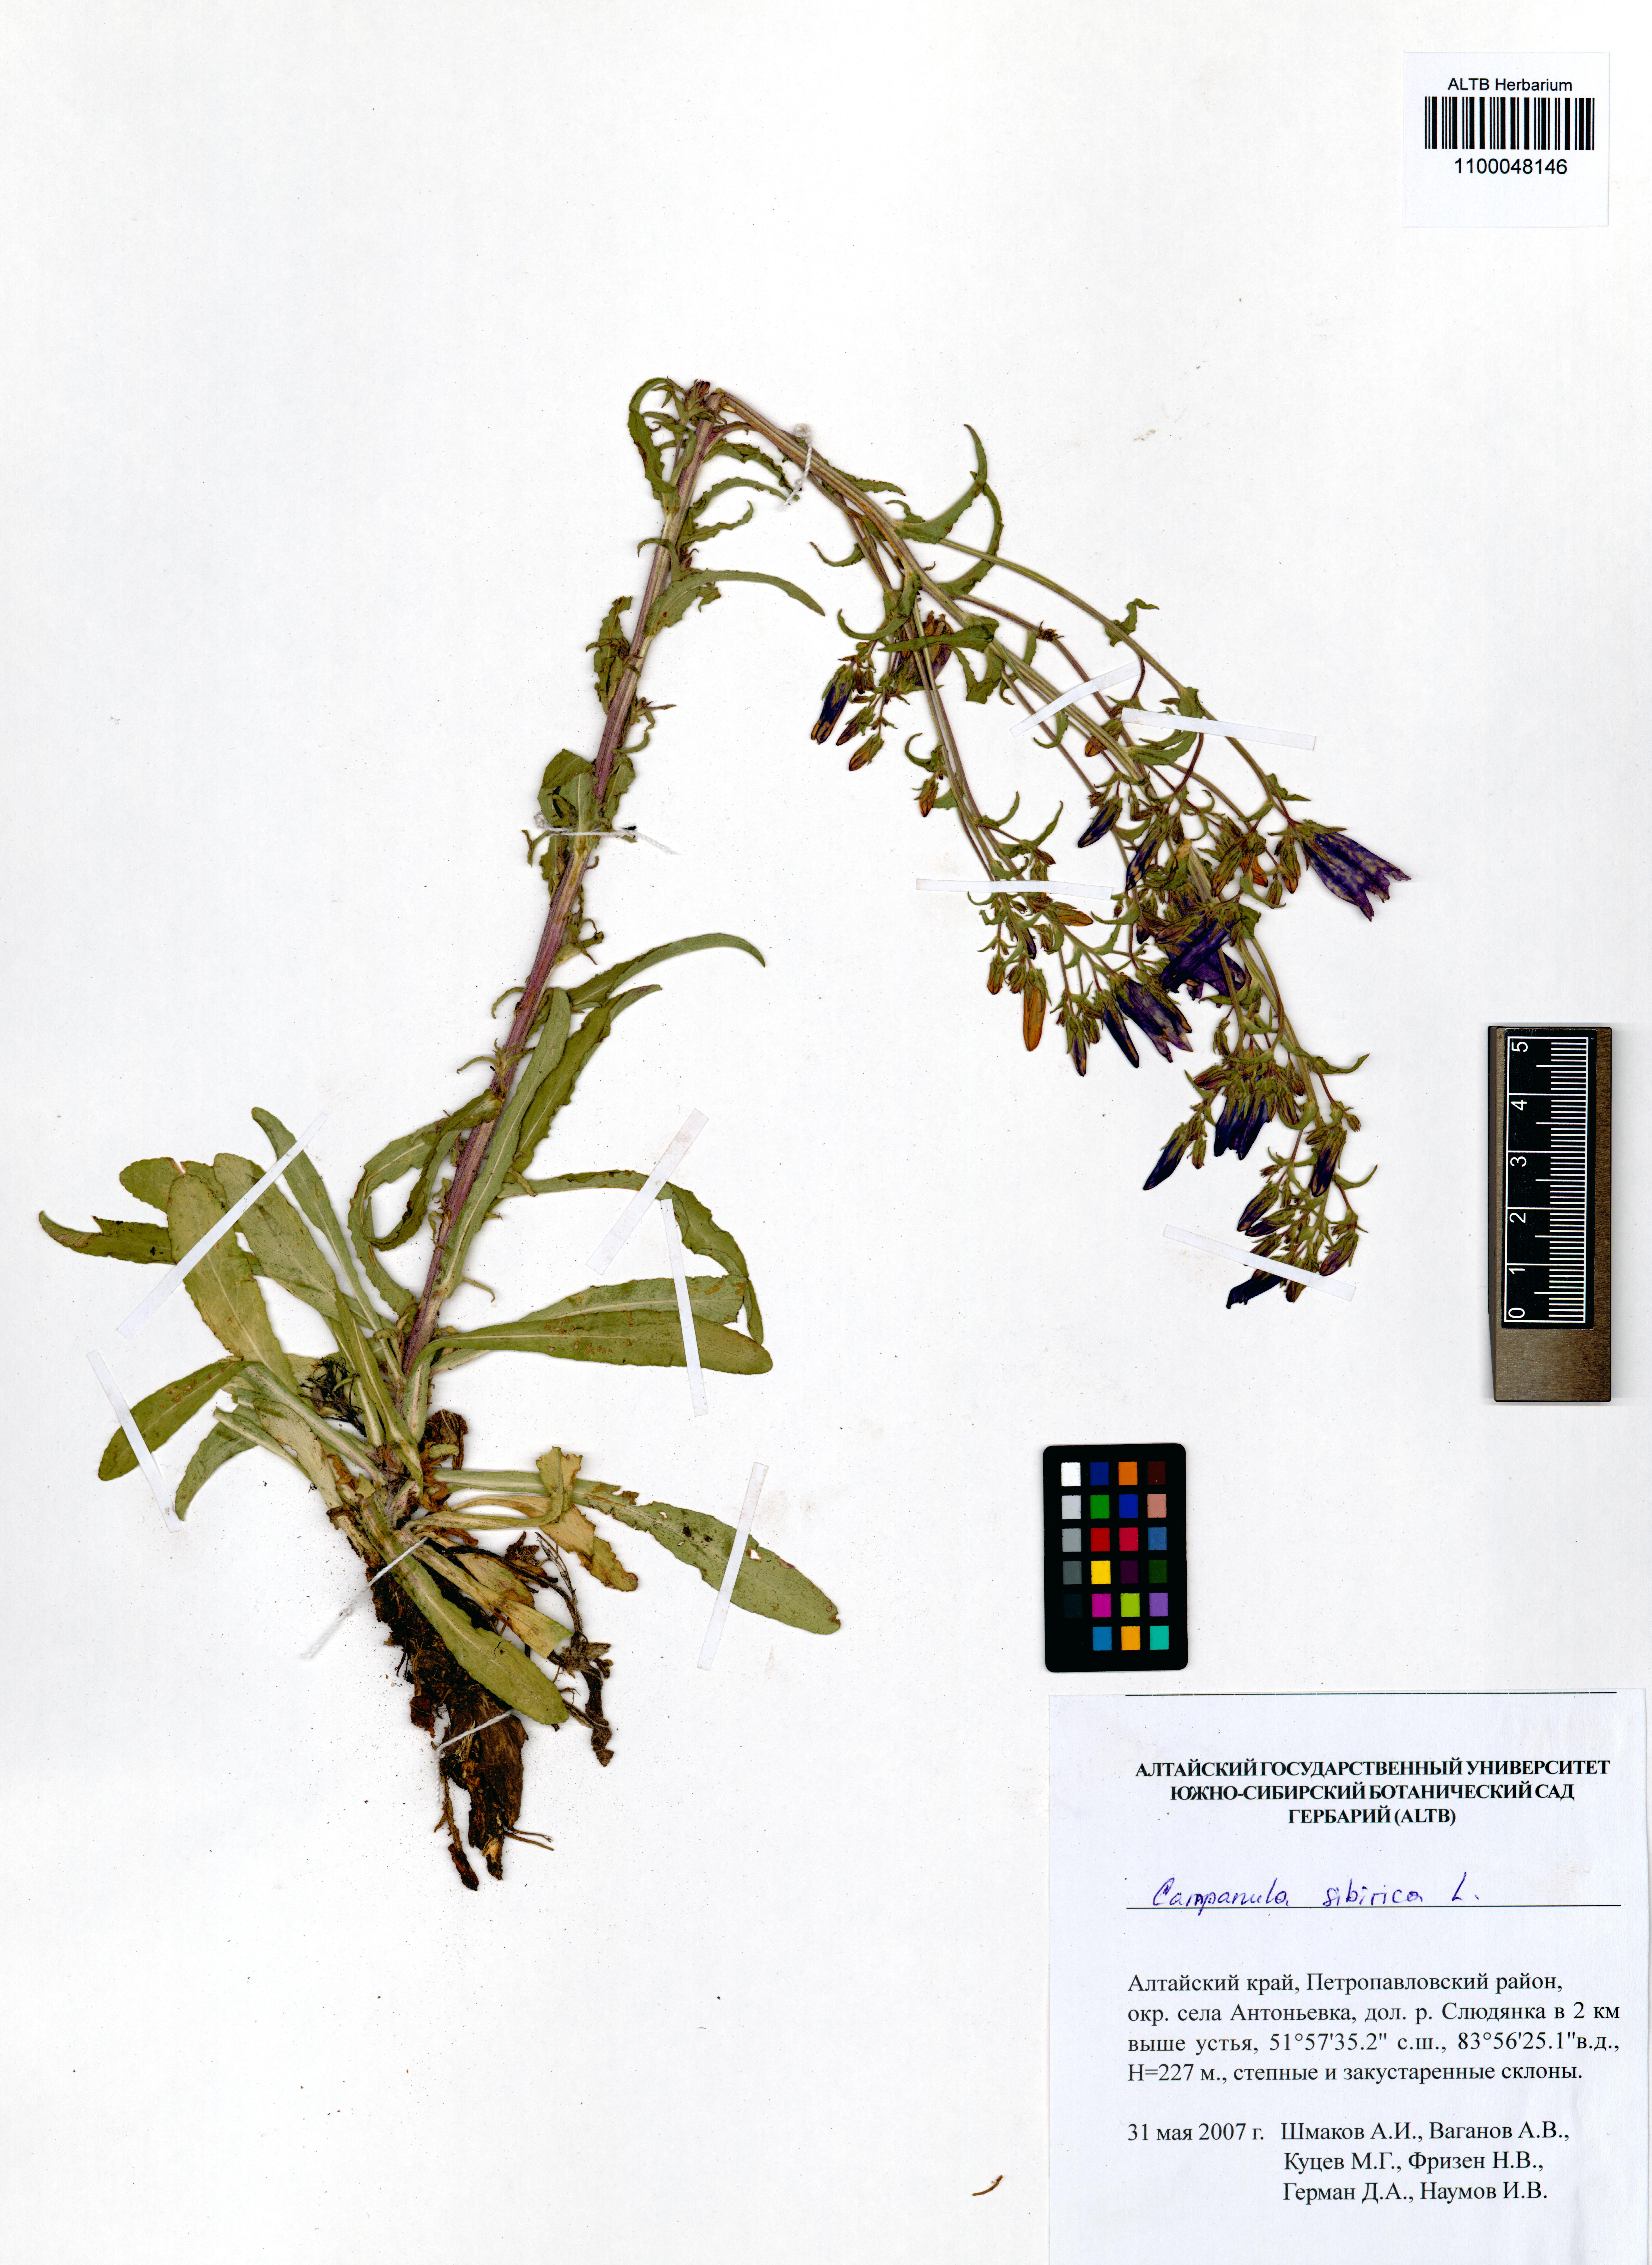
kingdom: Plantae
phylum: Tracheophyta
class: Magnoliopsida
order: Asterales
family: Campanulaceae
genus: Campanula
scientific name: Campanula sibirica
